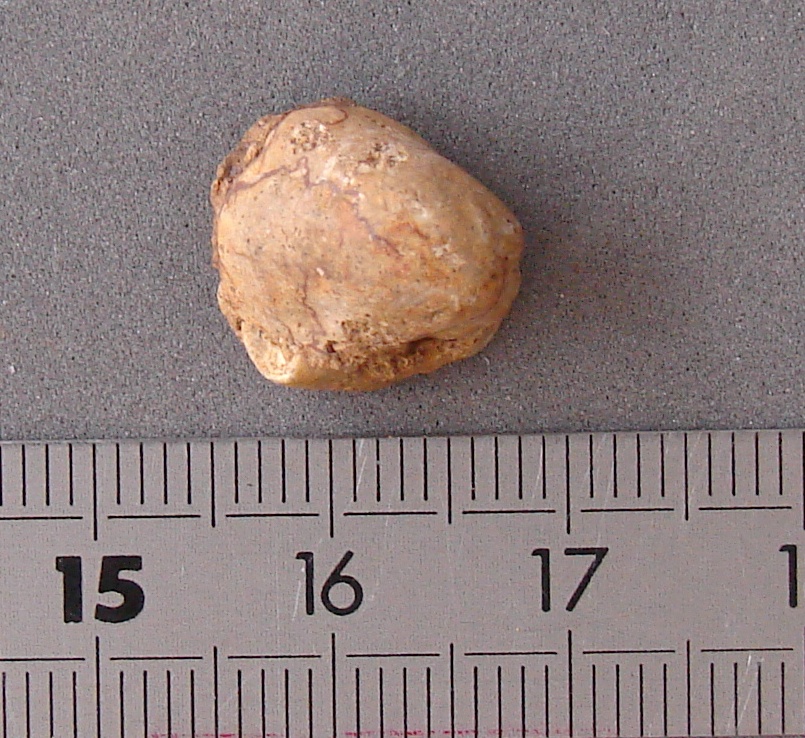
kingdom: Animalia
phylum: Mollusca
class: Bivalvia
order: Ostreida
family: Ostreidae
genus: Ostrea
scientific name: Ostrea calceola
